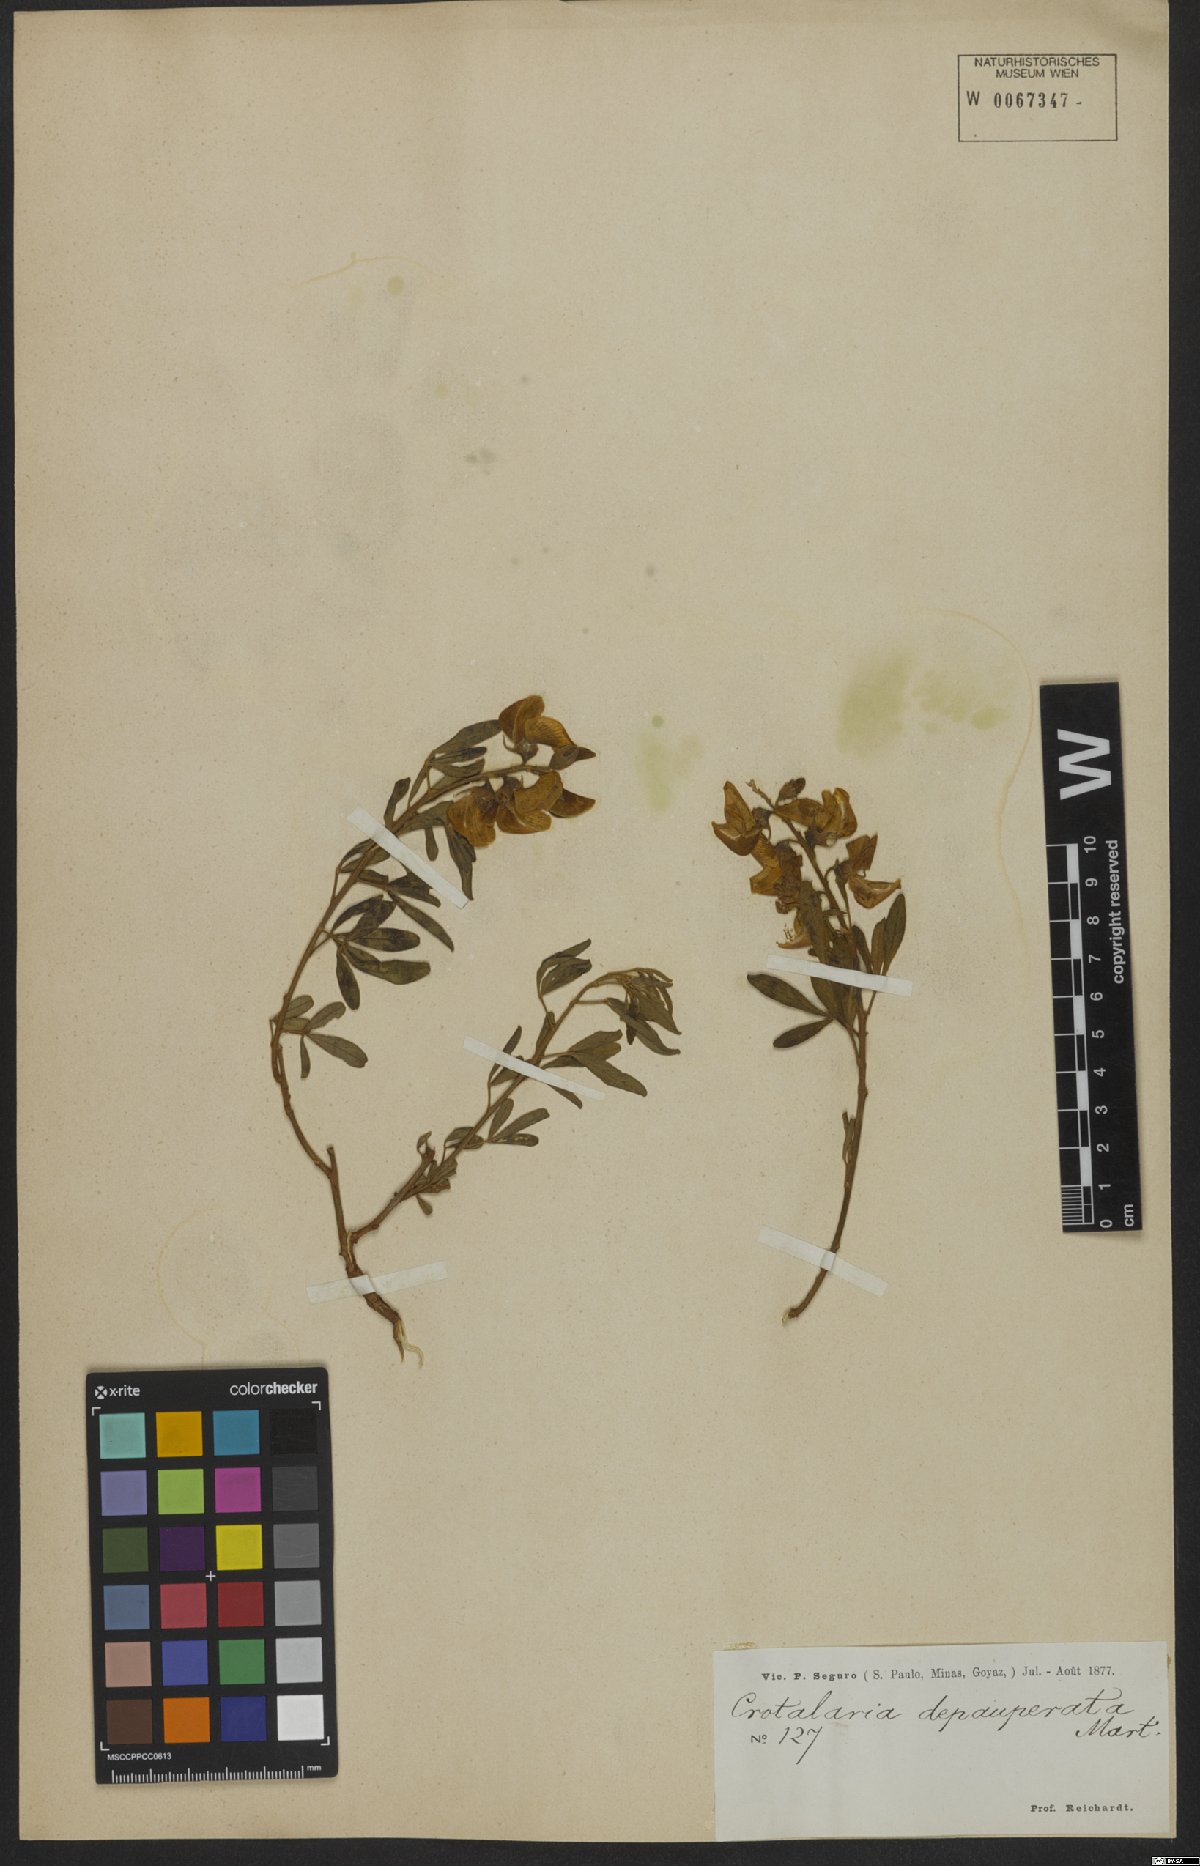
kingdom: Plantae
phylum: Tracheophyta
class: Magnoliopsida
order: Fabales
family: Fabaceae
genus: Crotalaria
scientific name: Crotalaria maypurensis
